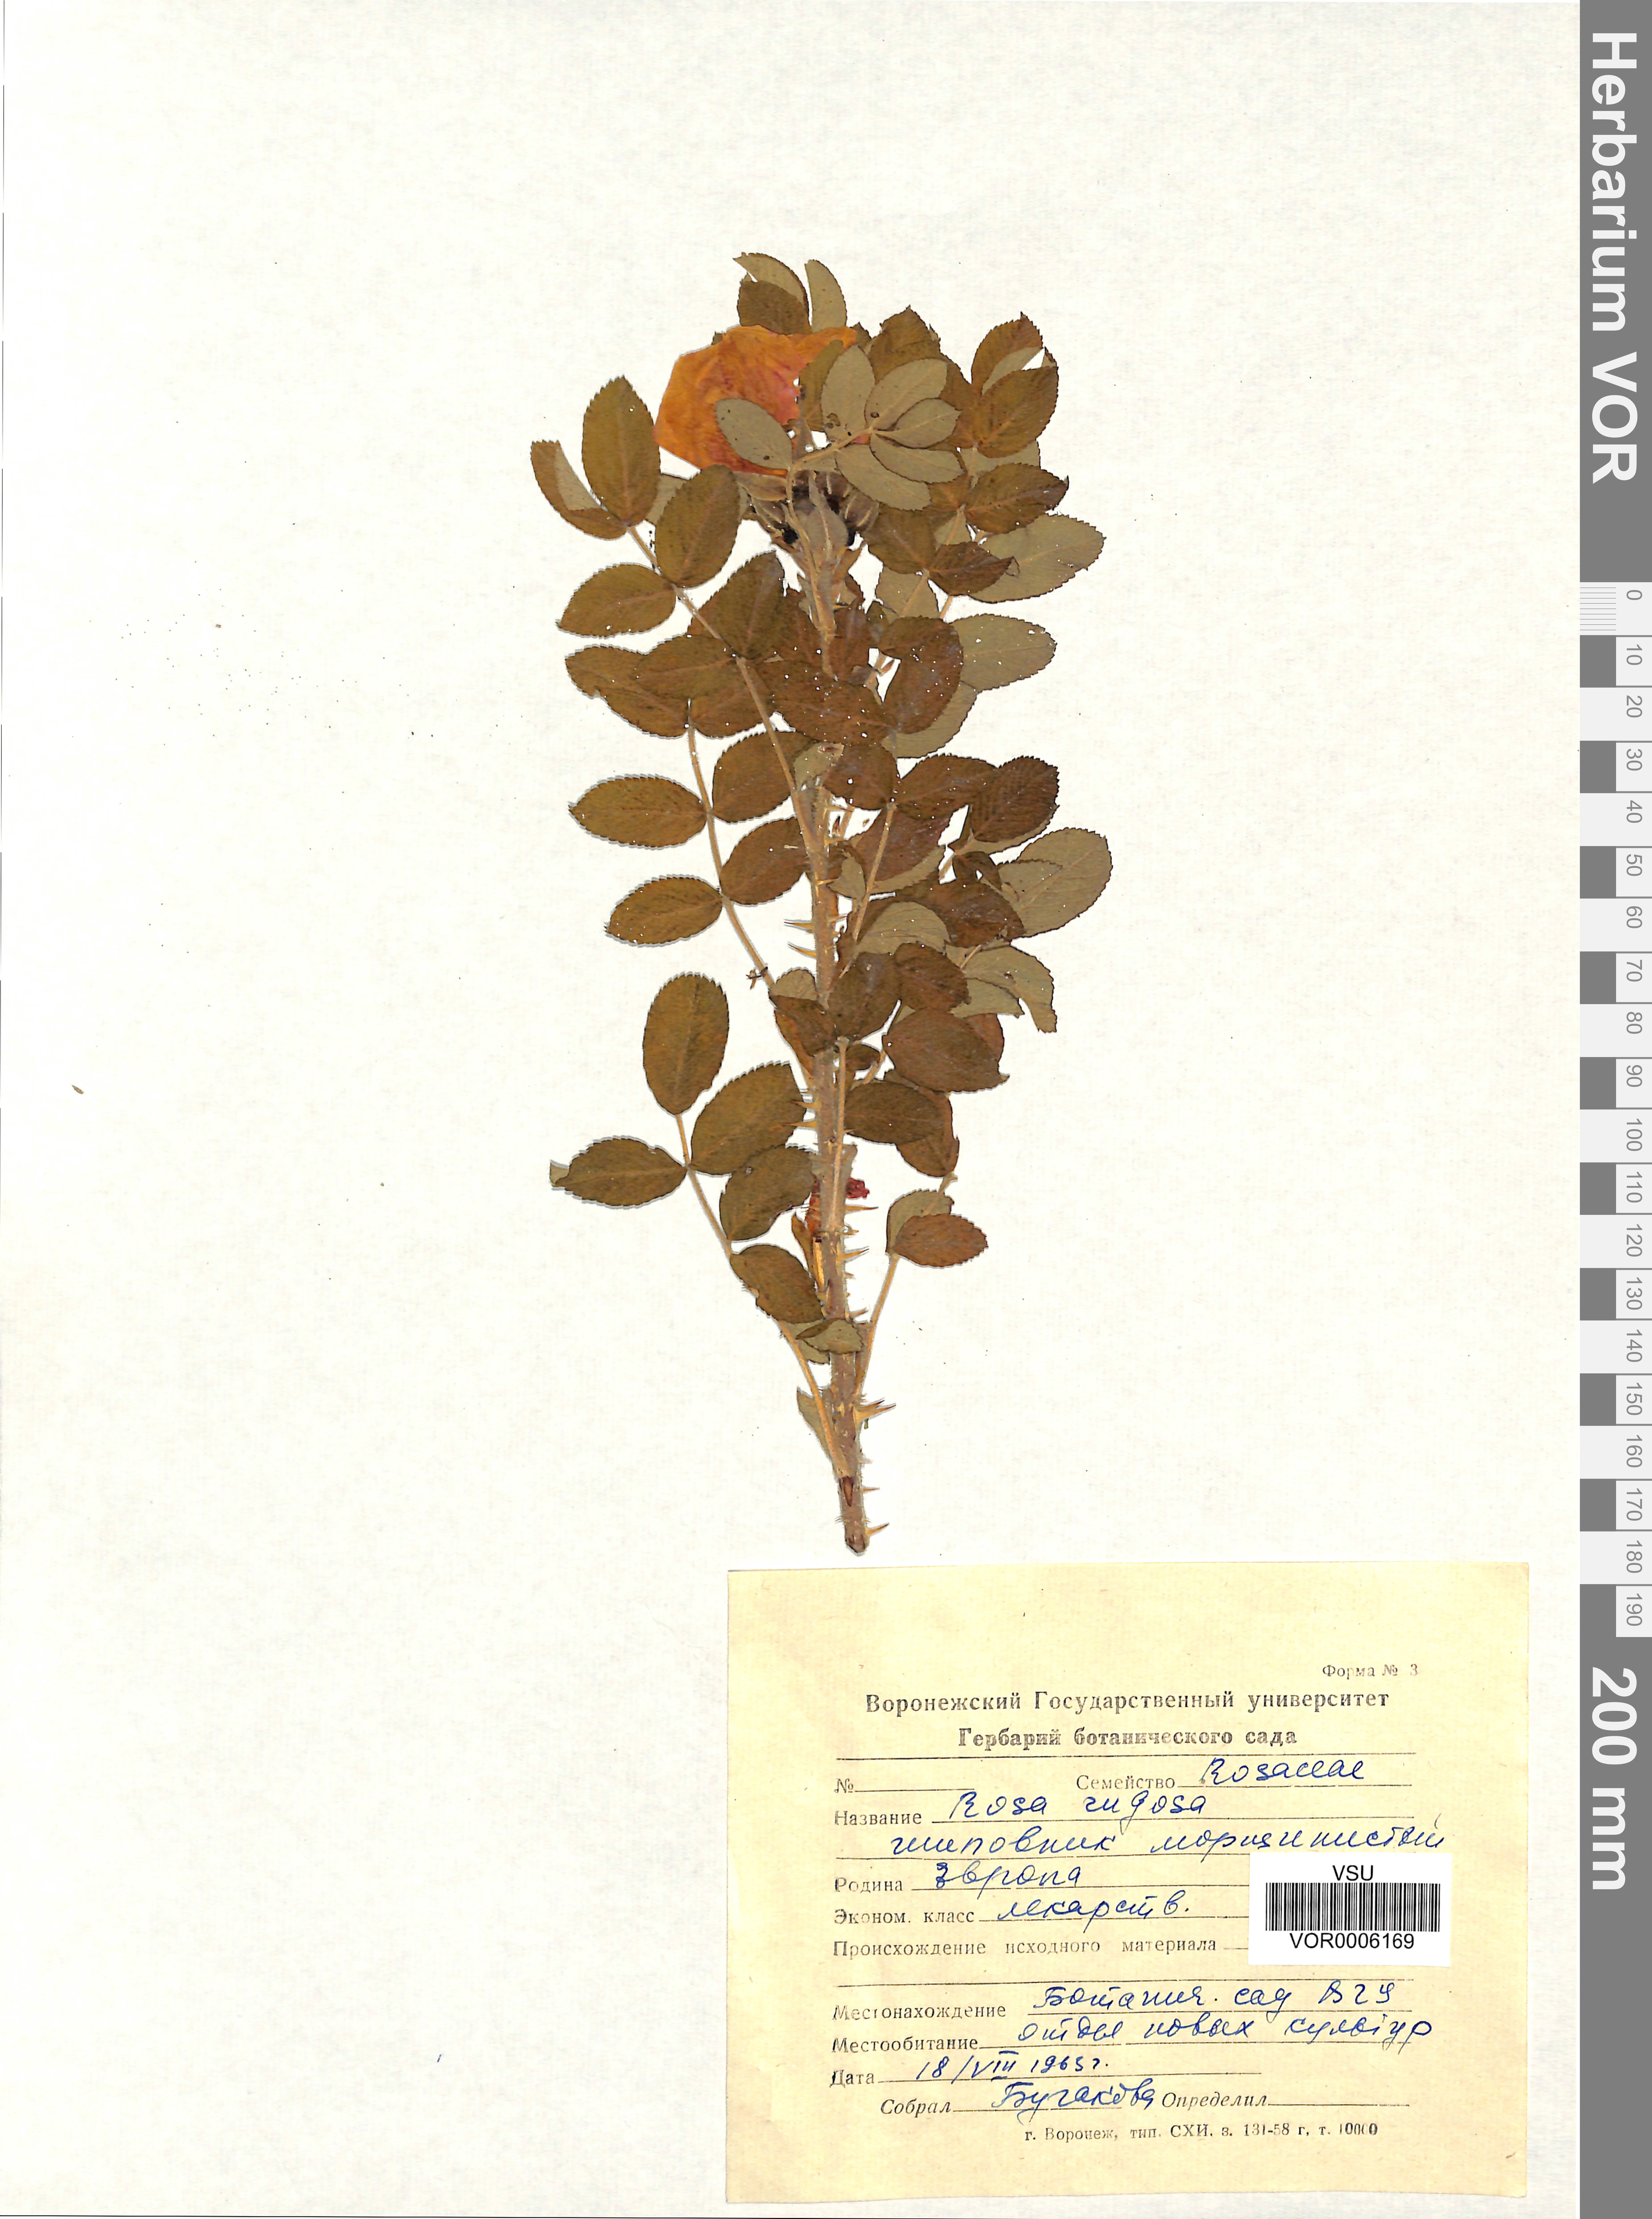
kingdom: Plantae
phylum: Tracheophyta
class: Magnoliopsida
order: Rosales
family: Rosaceae
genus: Rosa
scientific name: Rosa rugosa
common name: Japanese rose
